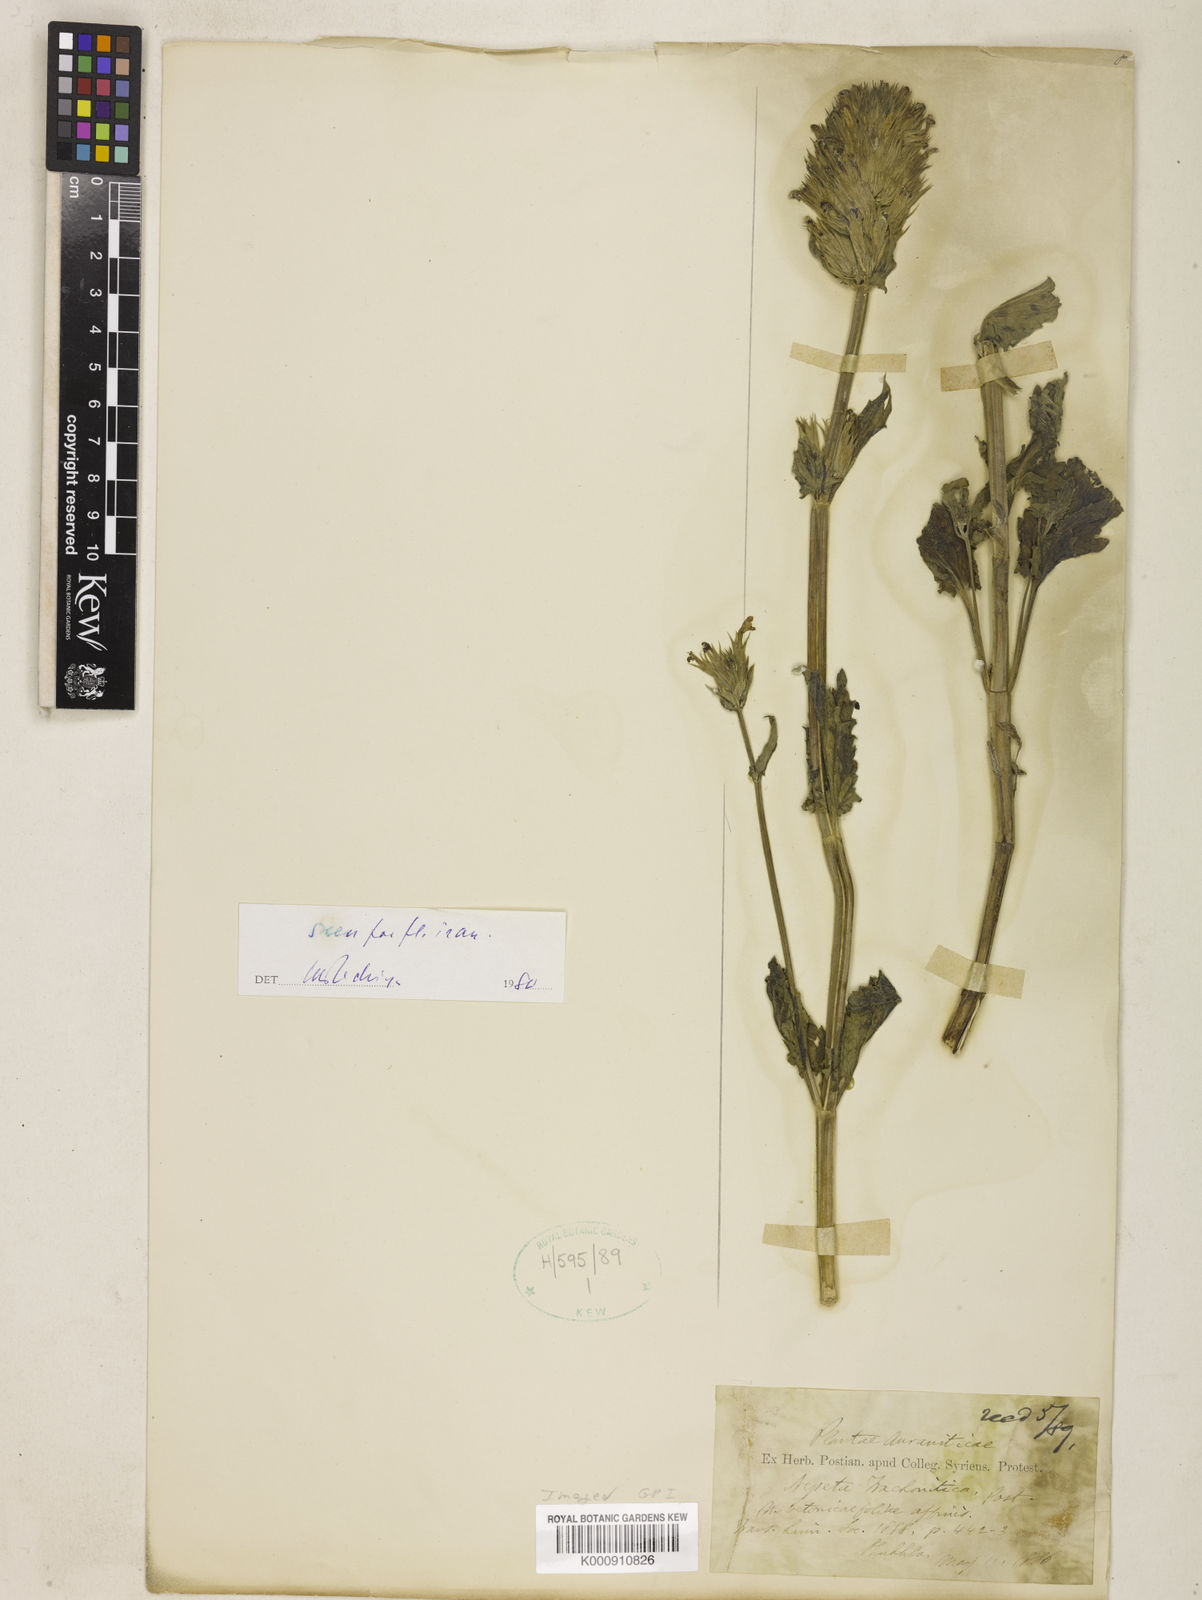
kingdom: Plantae
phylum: Tracheophyta
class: Magnoliopsida
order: Lamiales
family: Lamiaceae
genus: Nepeta
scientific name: Nepeta trachonitica
